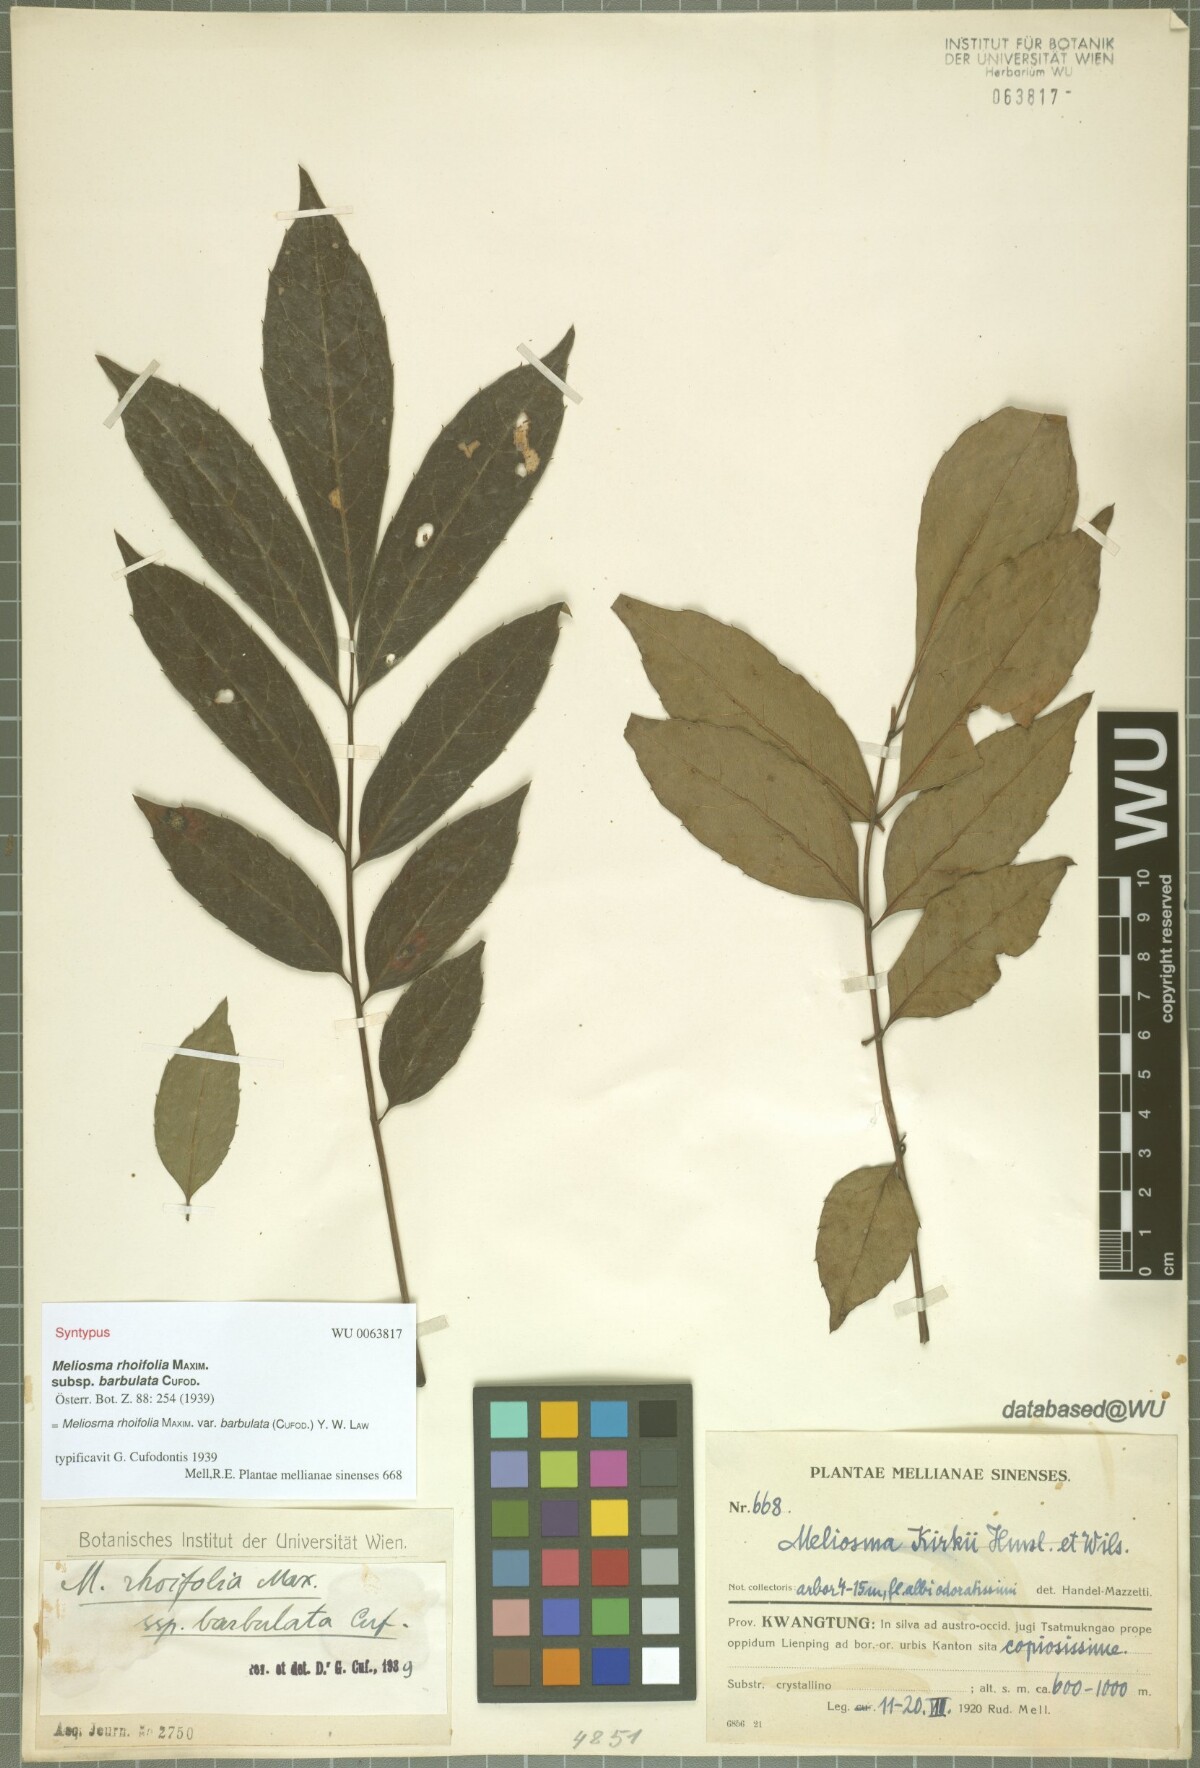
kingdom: Plantae
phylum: Tracheophyta
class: Magnoliopsida
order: Proteales
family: Sabiaceae
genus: Meliosma
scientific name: Meliosma rhoifolia
